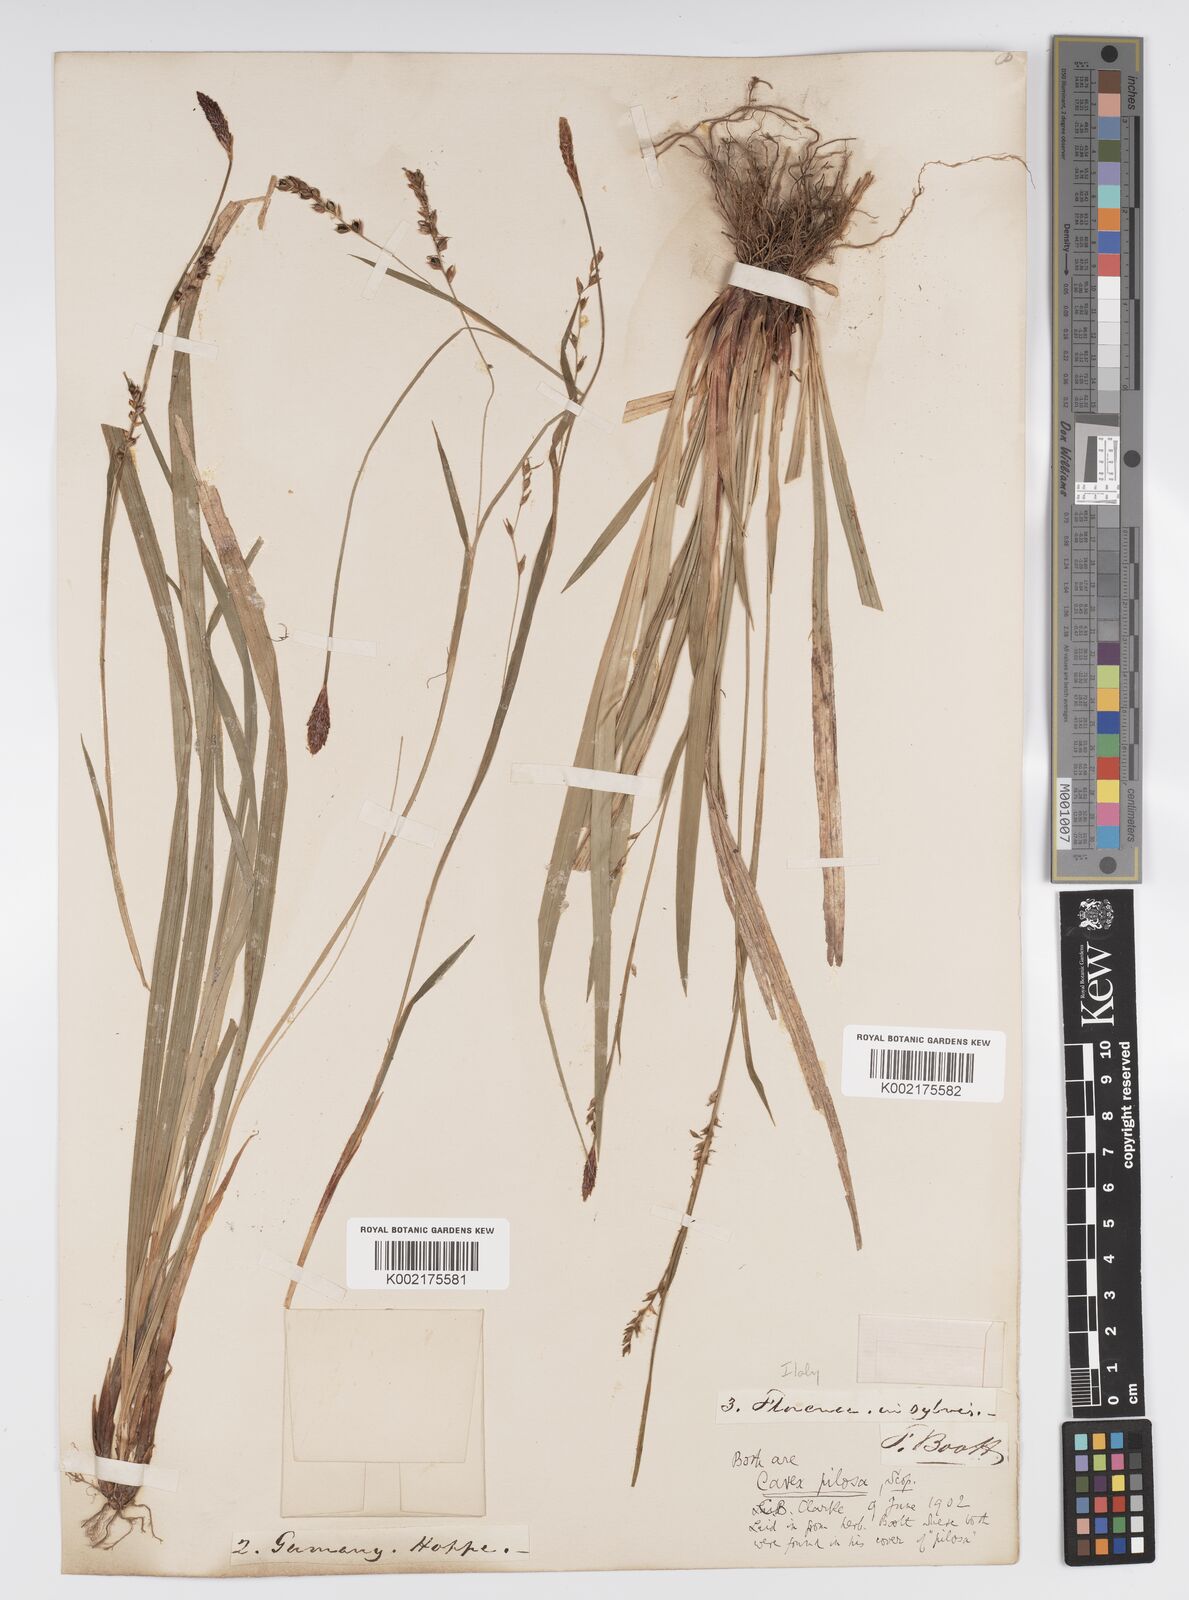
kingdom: Plantae
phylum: Tracheophyta
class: Liliopsida
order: Poales
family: Cyperaceae
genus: Carex
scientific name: Carex pilosa
